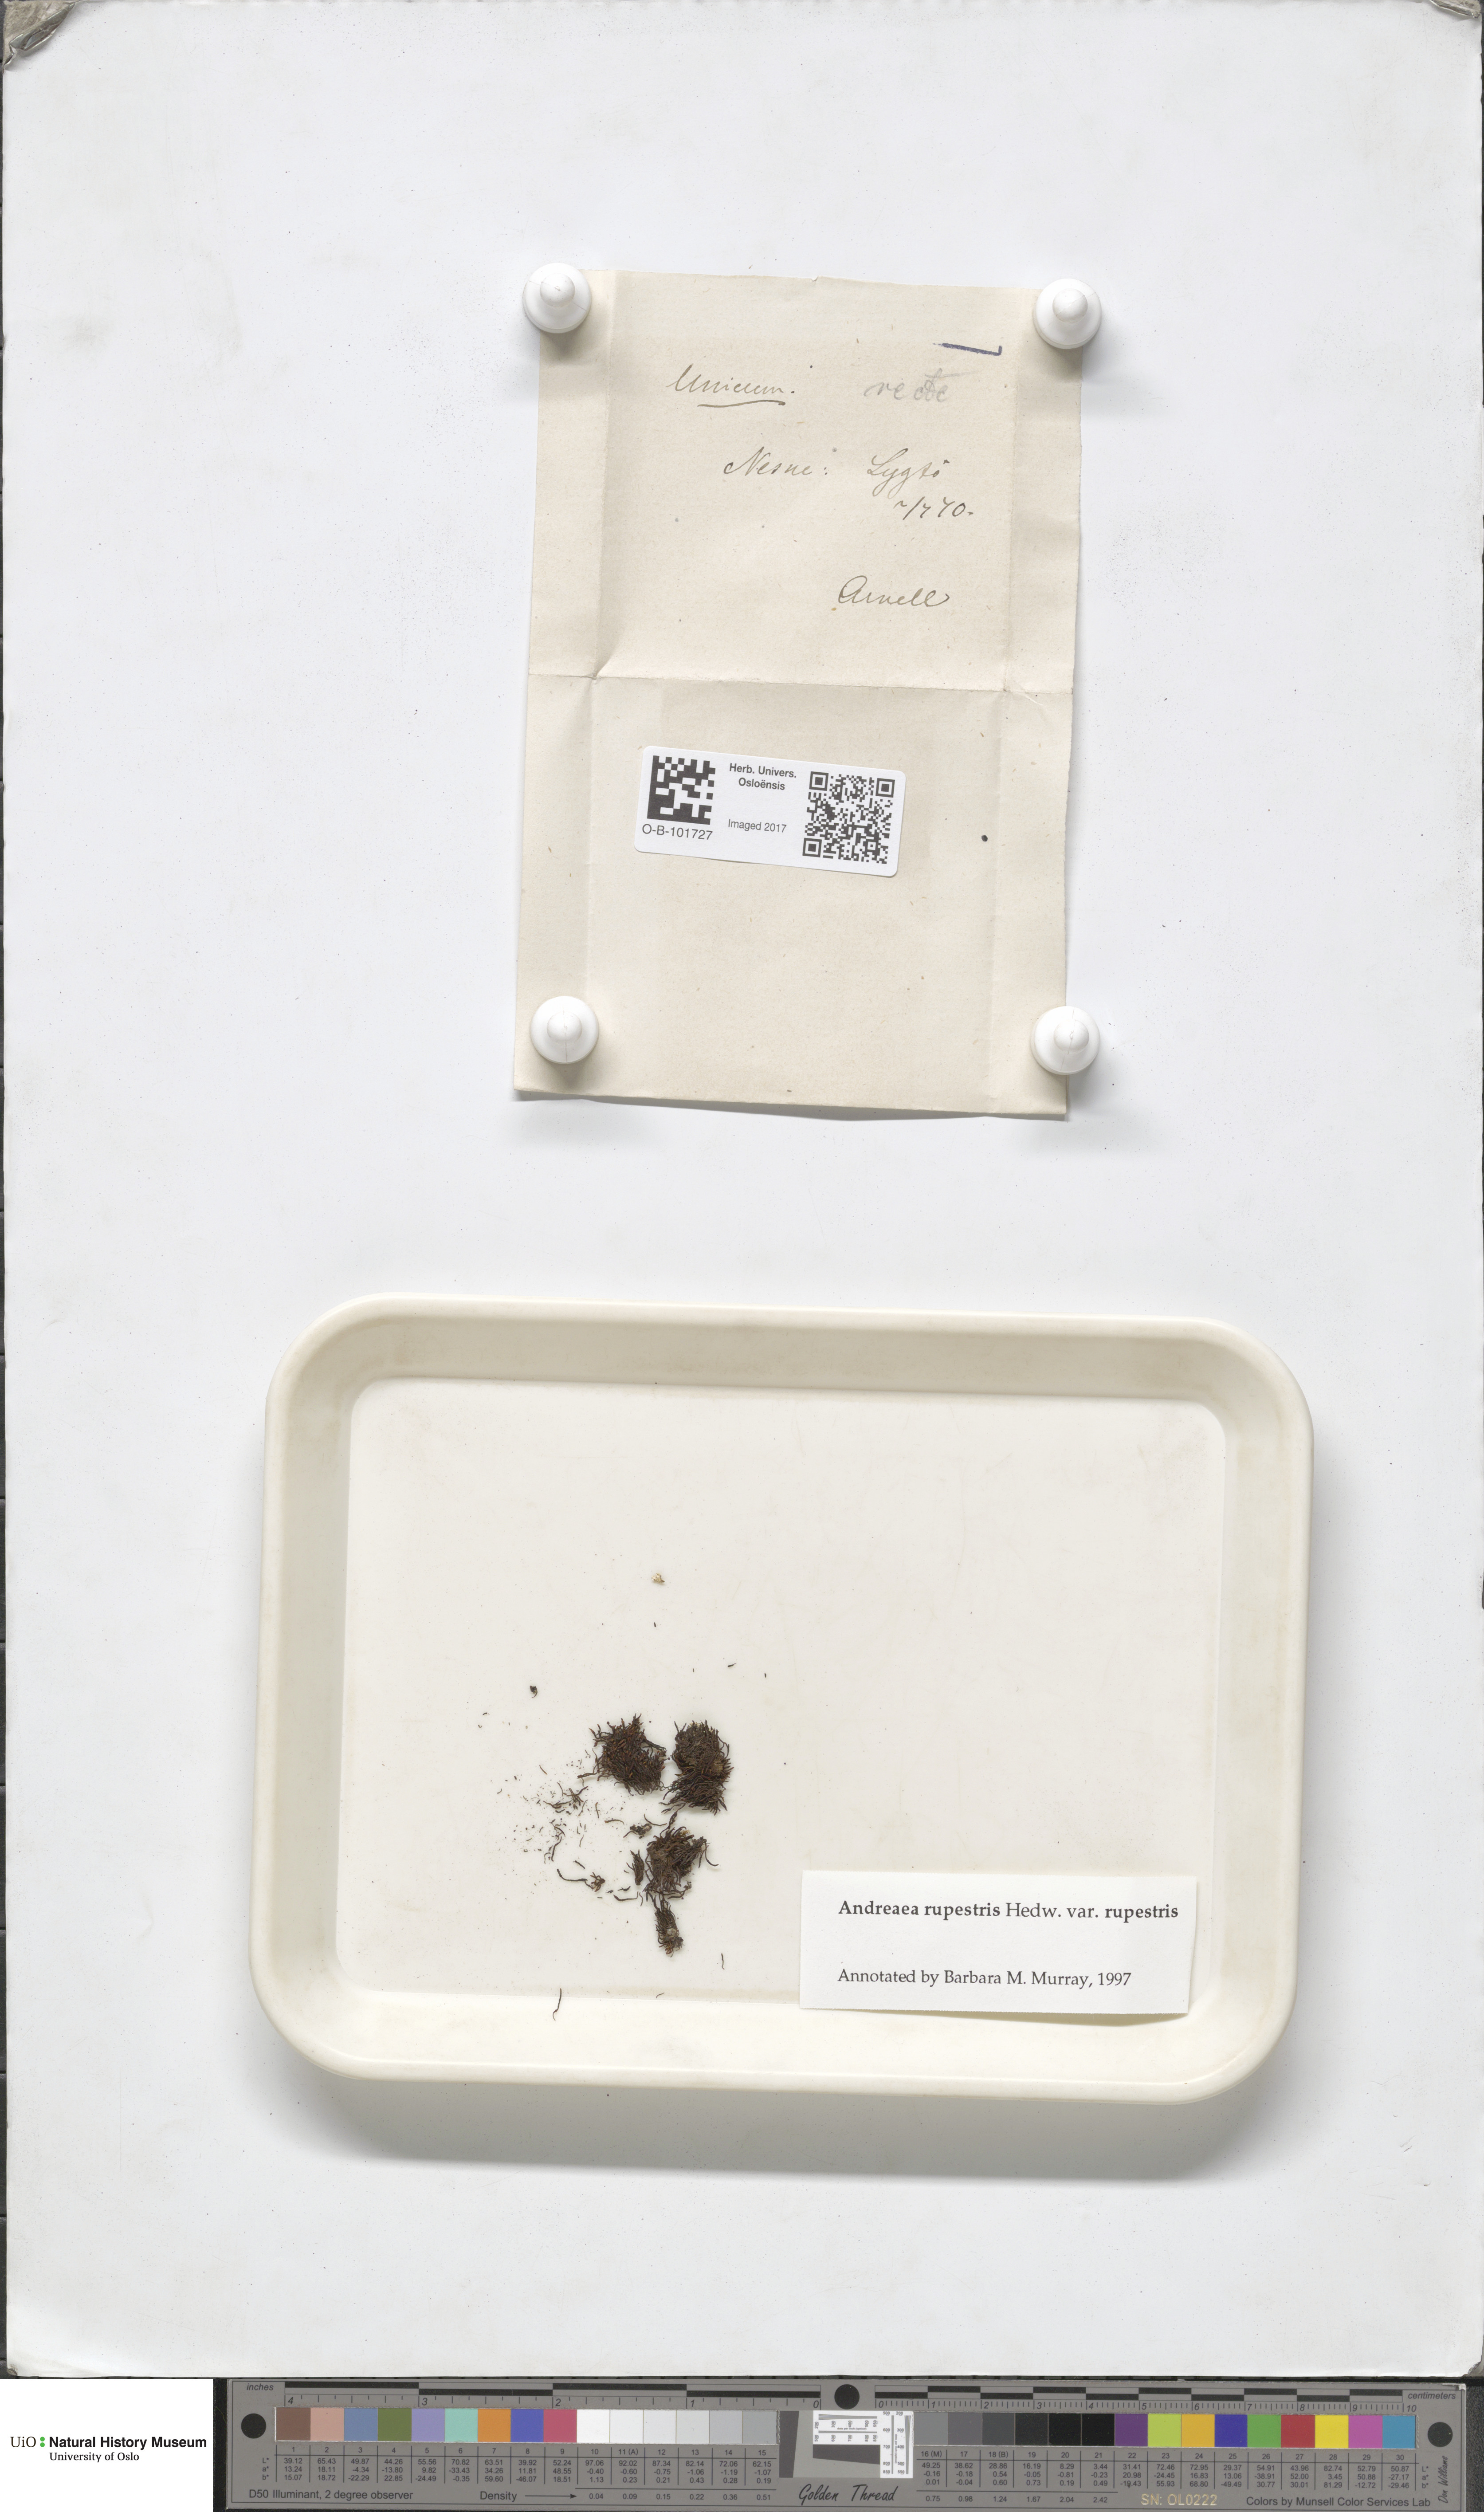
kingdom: Plantae
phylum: Bryophyta
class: Andreaeopsida
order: Andreaeales
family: Andreaeaceae
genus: Andreaea
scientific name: Andreaea rupestris
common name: Black rock moss
